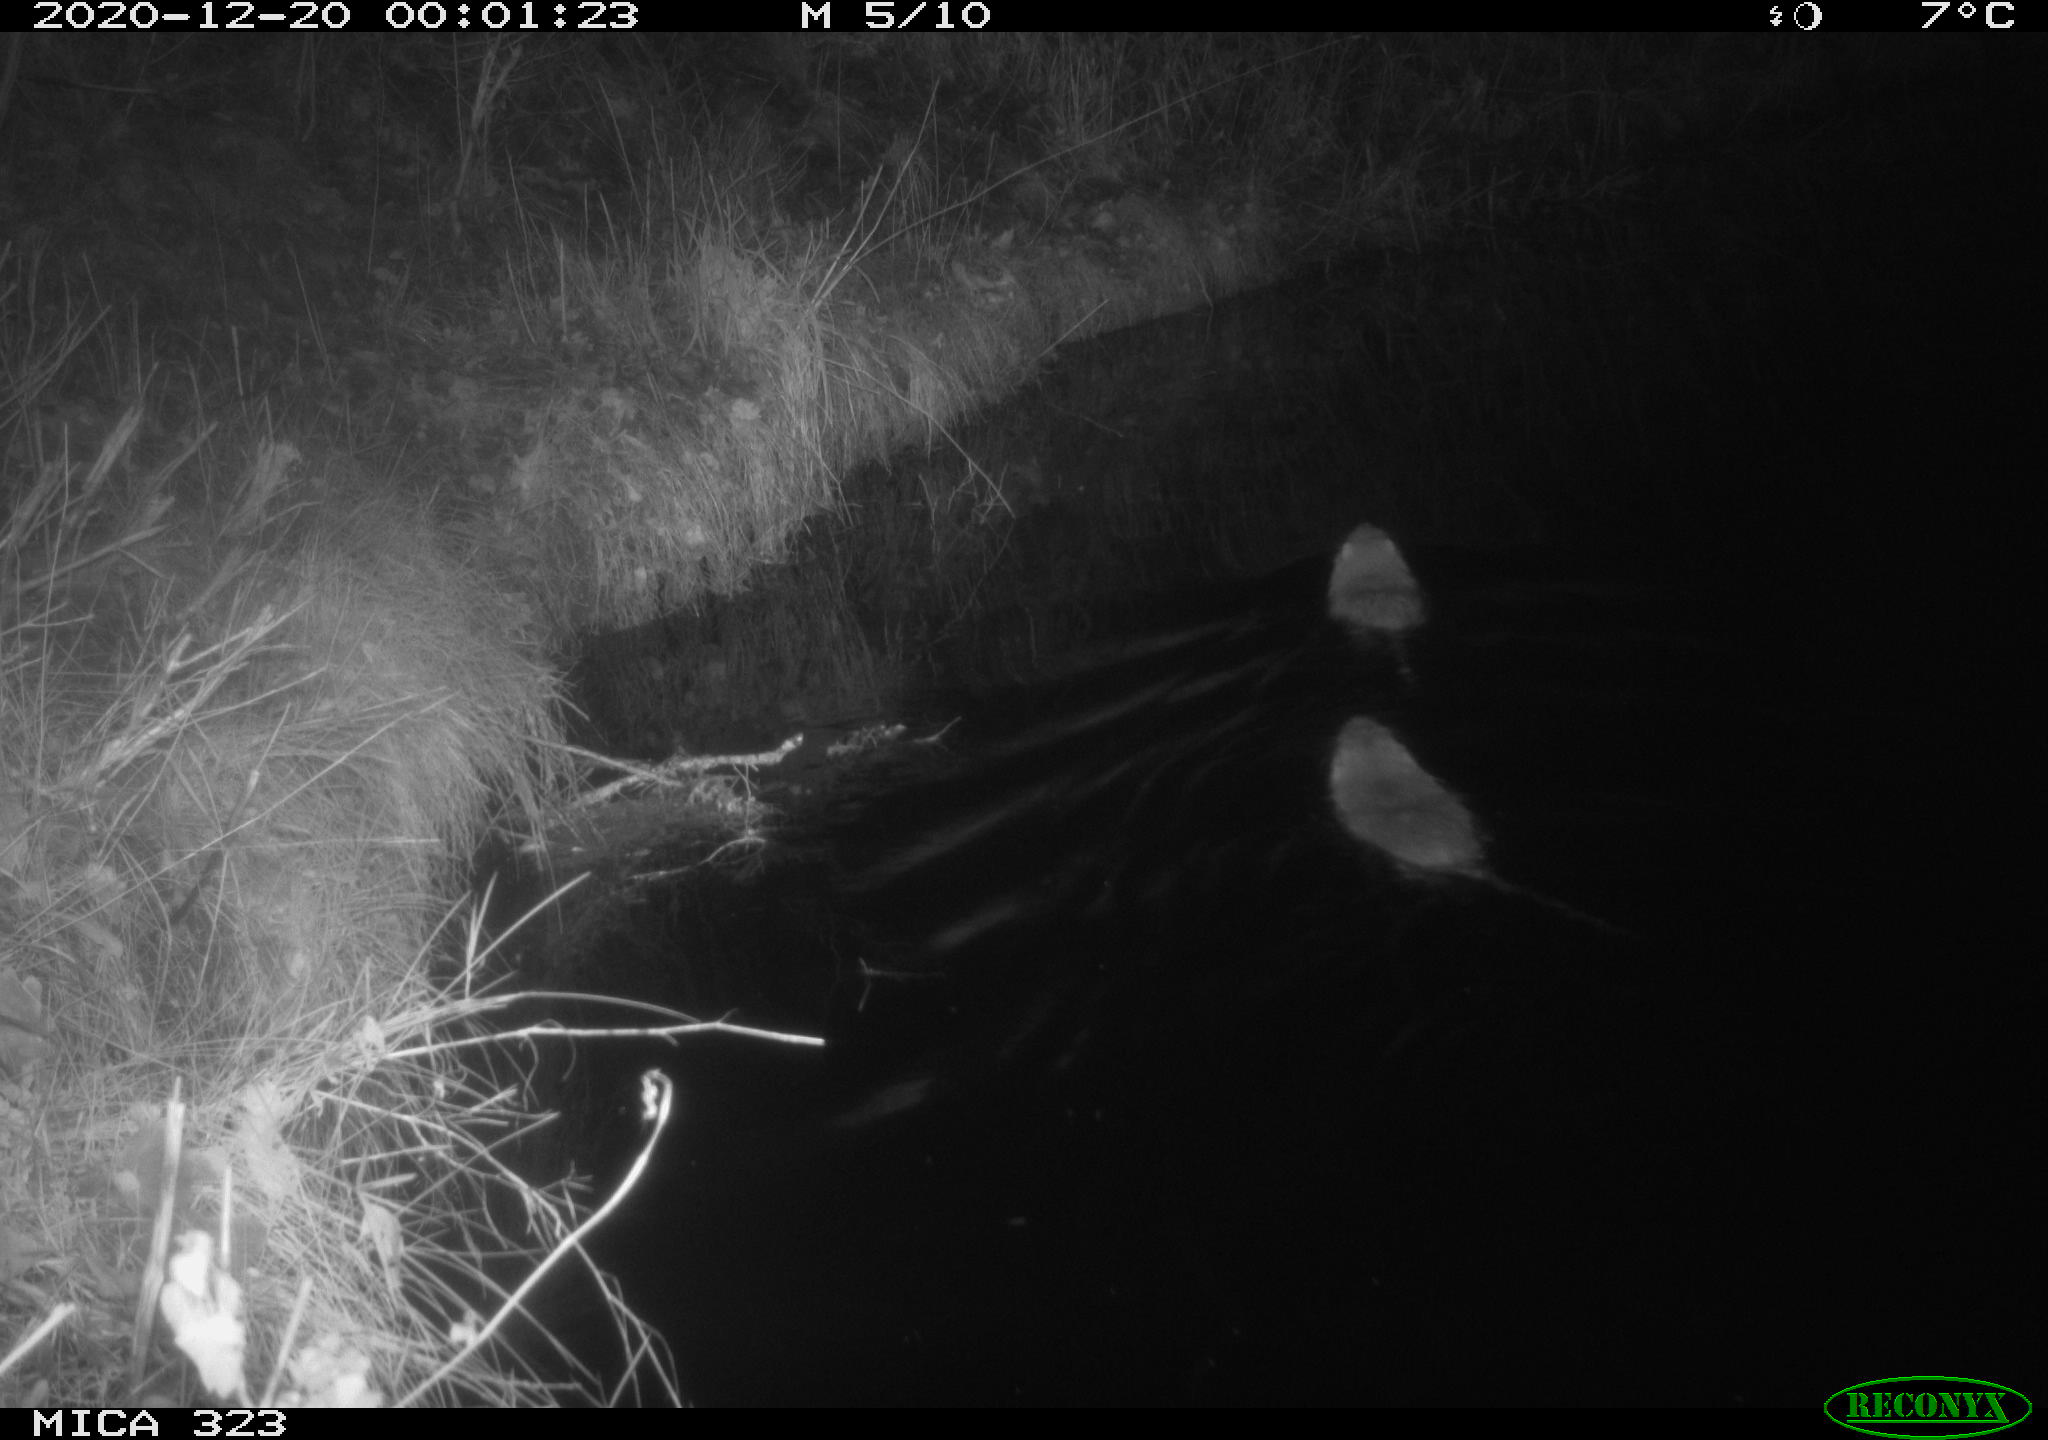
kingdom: Animalia
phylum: Chordata
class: Mammalia
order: Rodentia
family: Myocastoridae
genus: Myocastor
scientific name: Myocastor coypus
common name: Coypu
